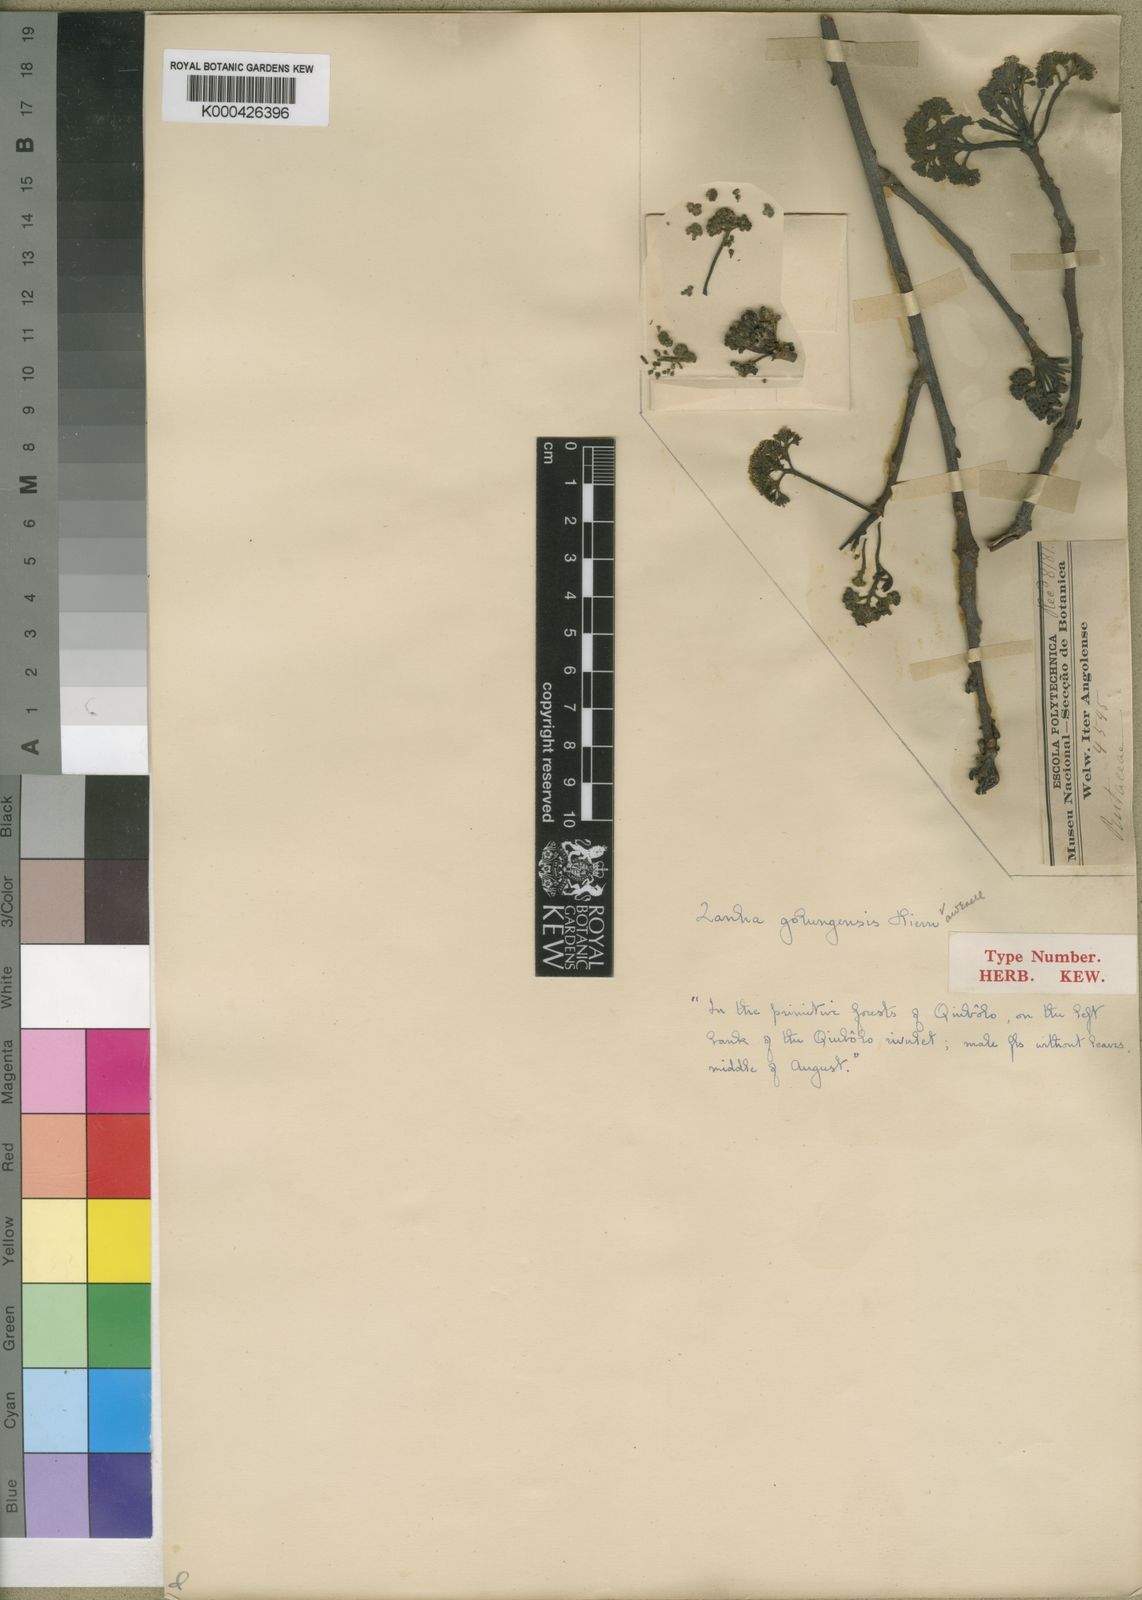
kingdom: Plantae
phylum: Tracheophyta
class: Magnoliopsida
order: Sapindales
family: Sapindaceae
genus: Zanha
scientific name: Zanha golungensis
